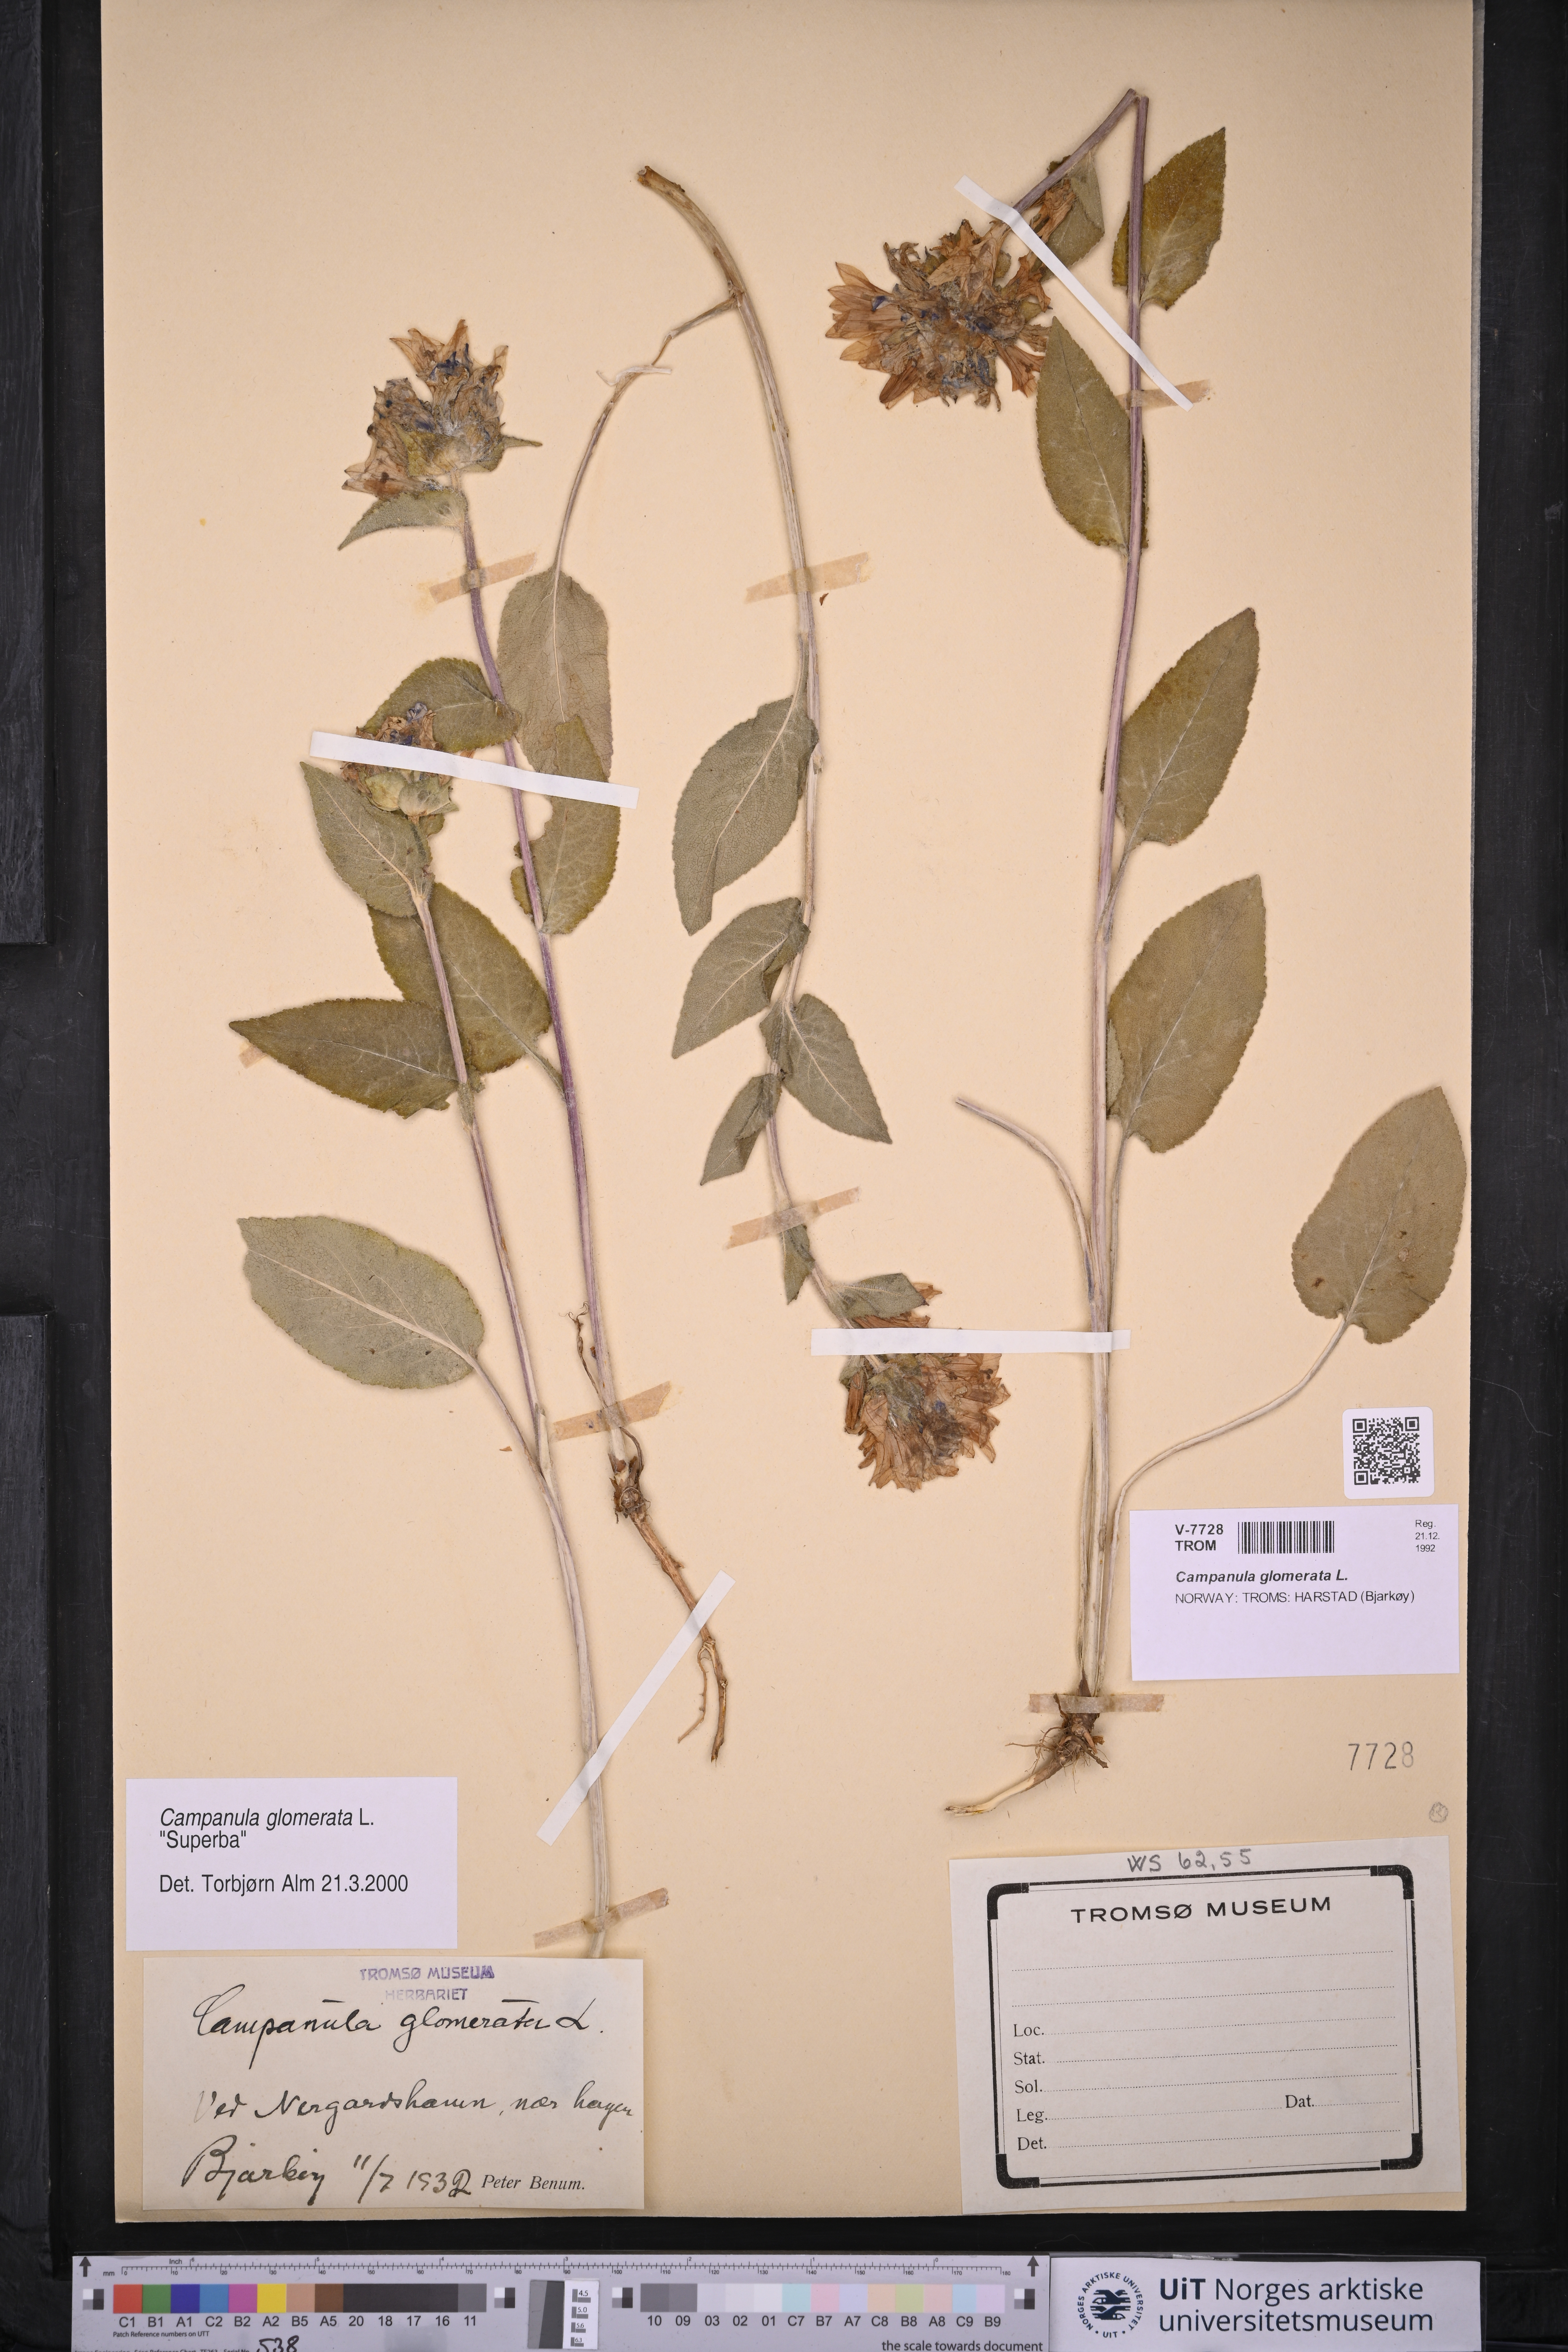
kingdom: Plantae
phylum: Tracheophyta
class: Magnoliopsida
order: Asterales
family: Campanulaceae
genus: Campanula
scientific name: Campanula glomerata
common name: Clustered bellflower
